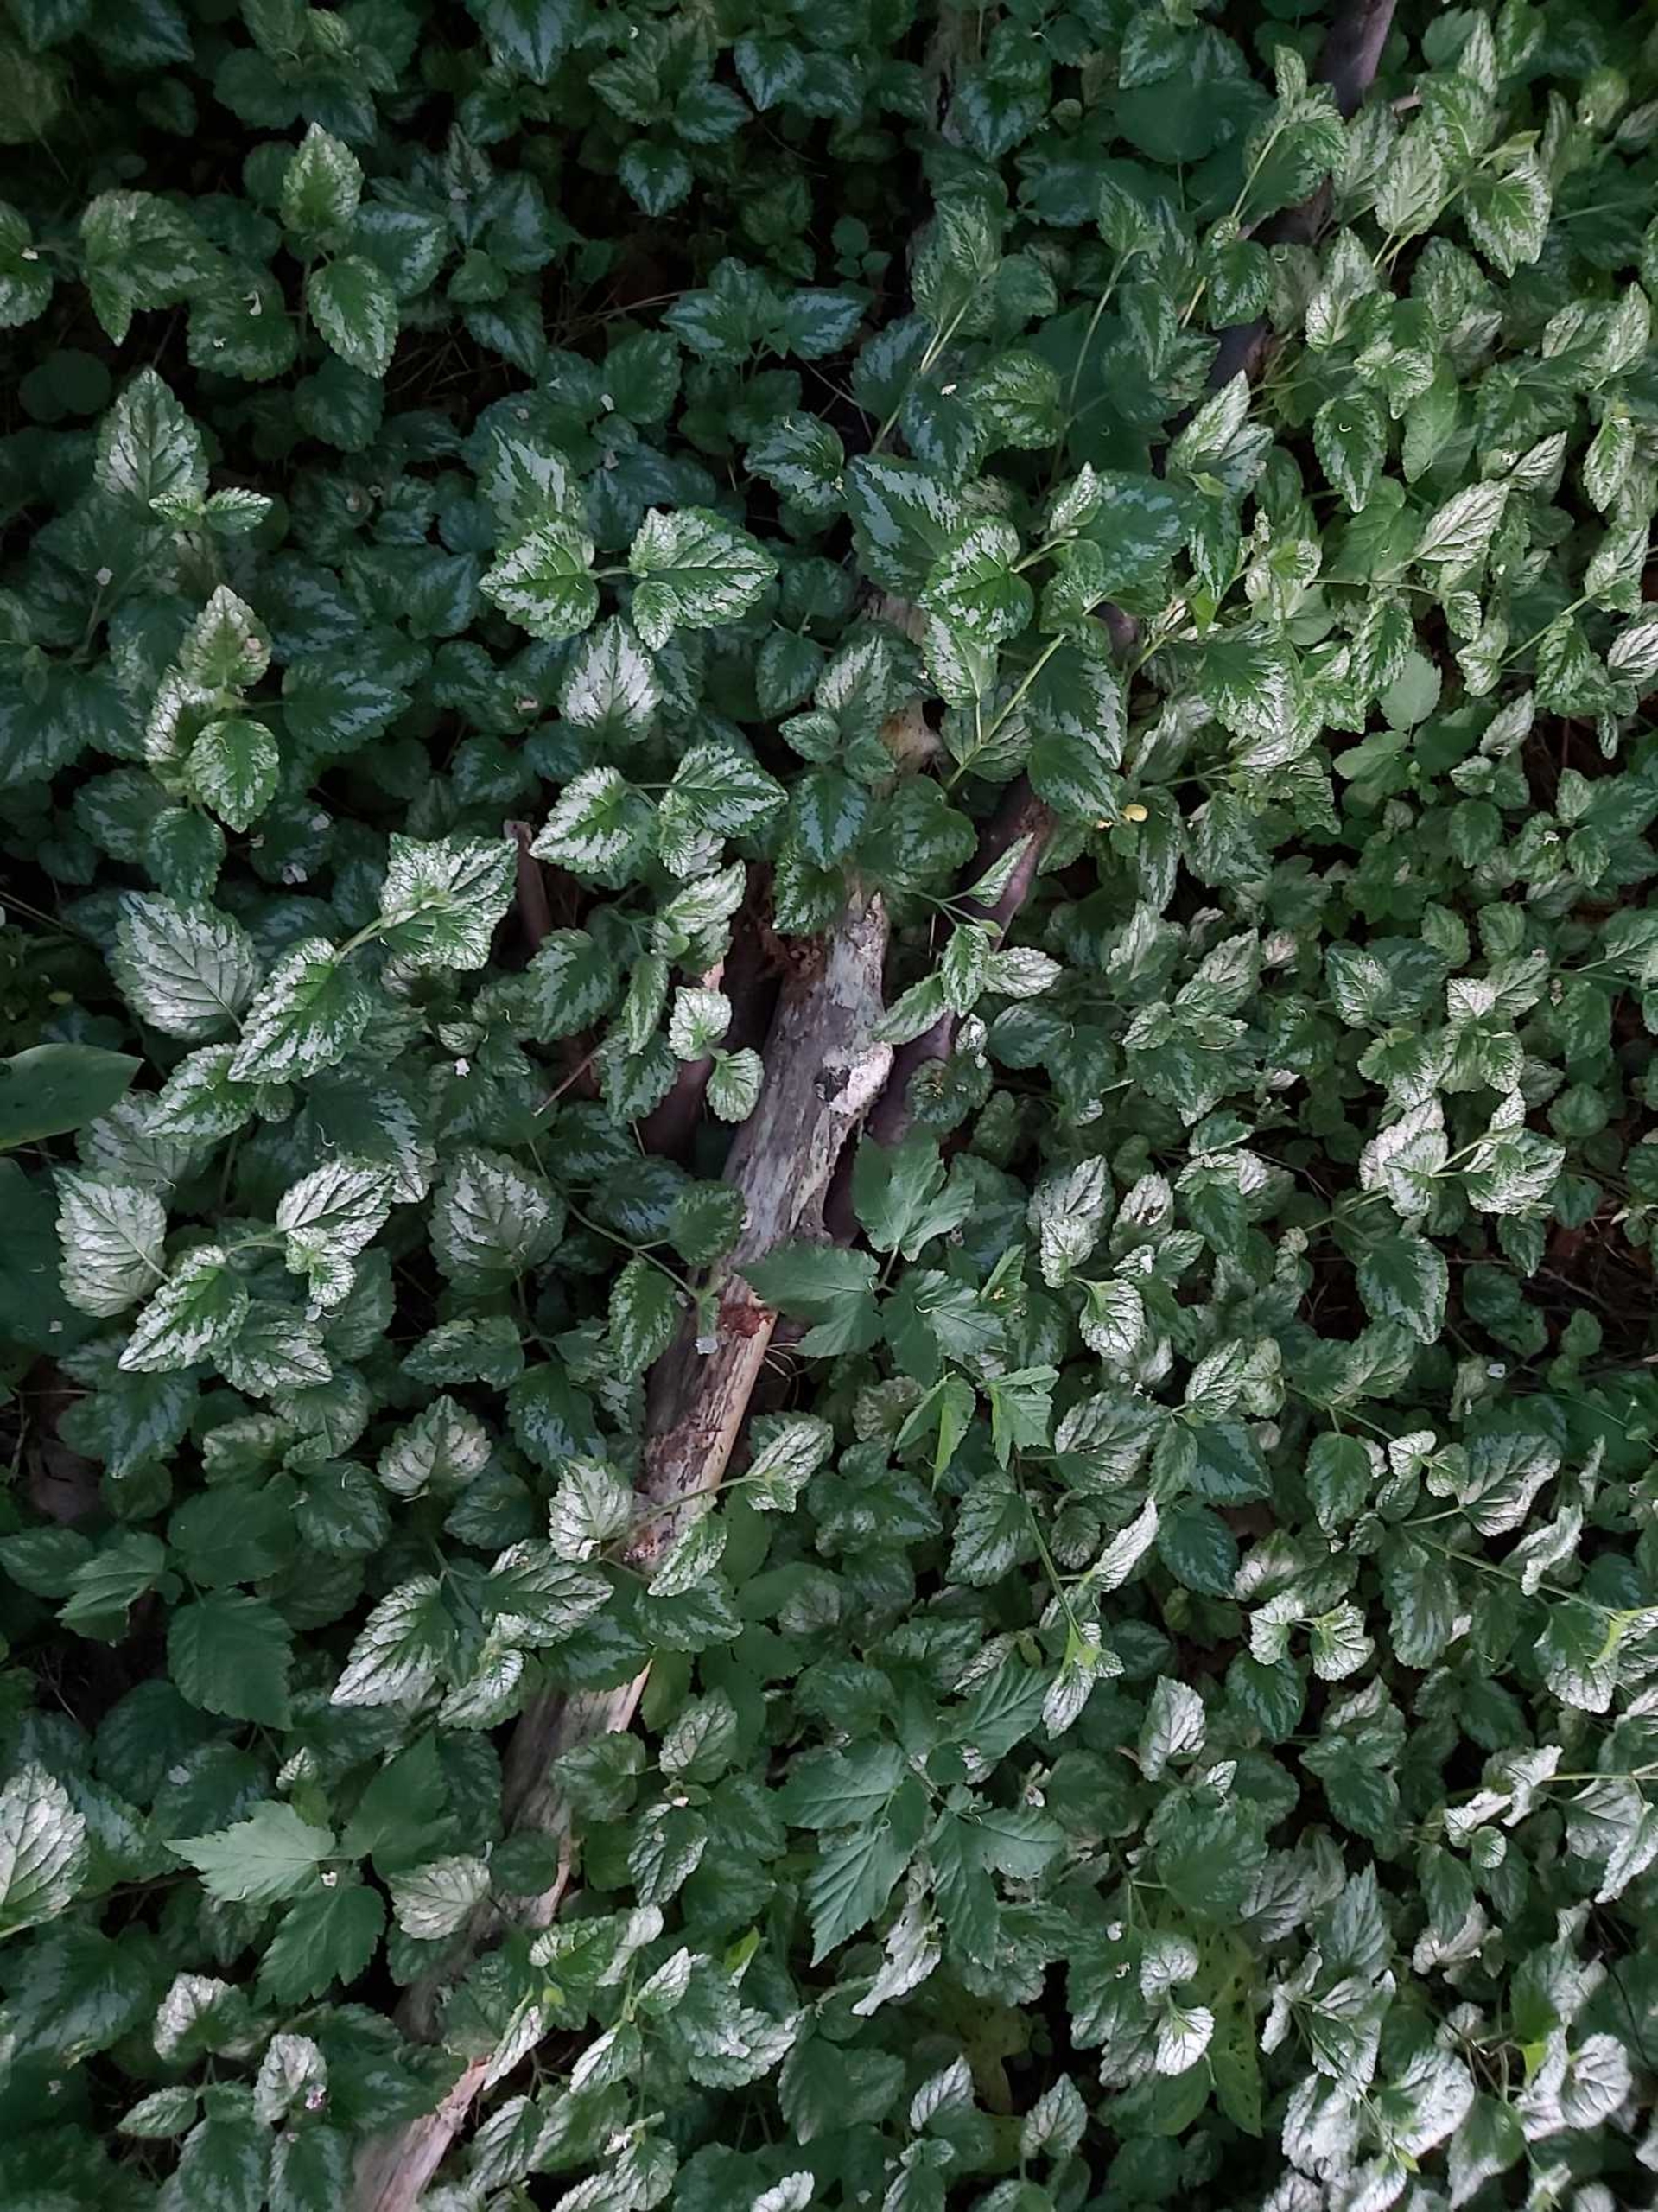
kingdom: Plantae
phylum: Tracheophyta
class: Magnoliopsida
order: Lamiales
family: Lamiaceae
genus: Lamium
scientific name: Lamium galeobdolon
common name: Have-guldnælde
